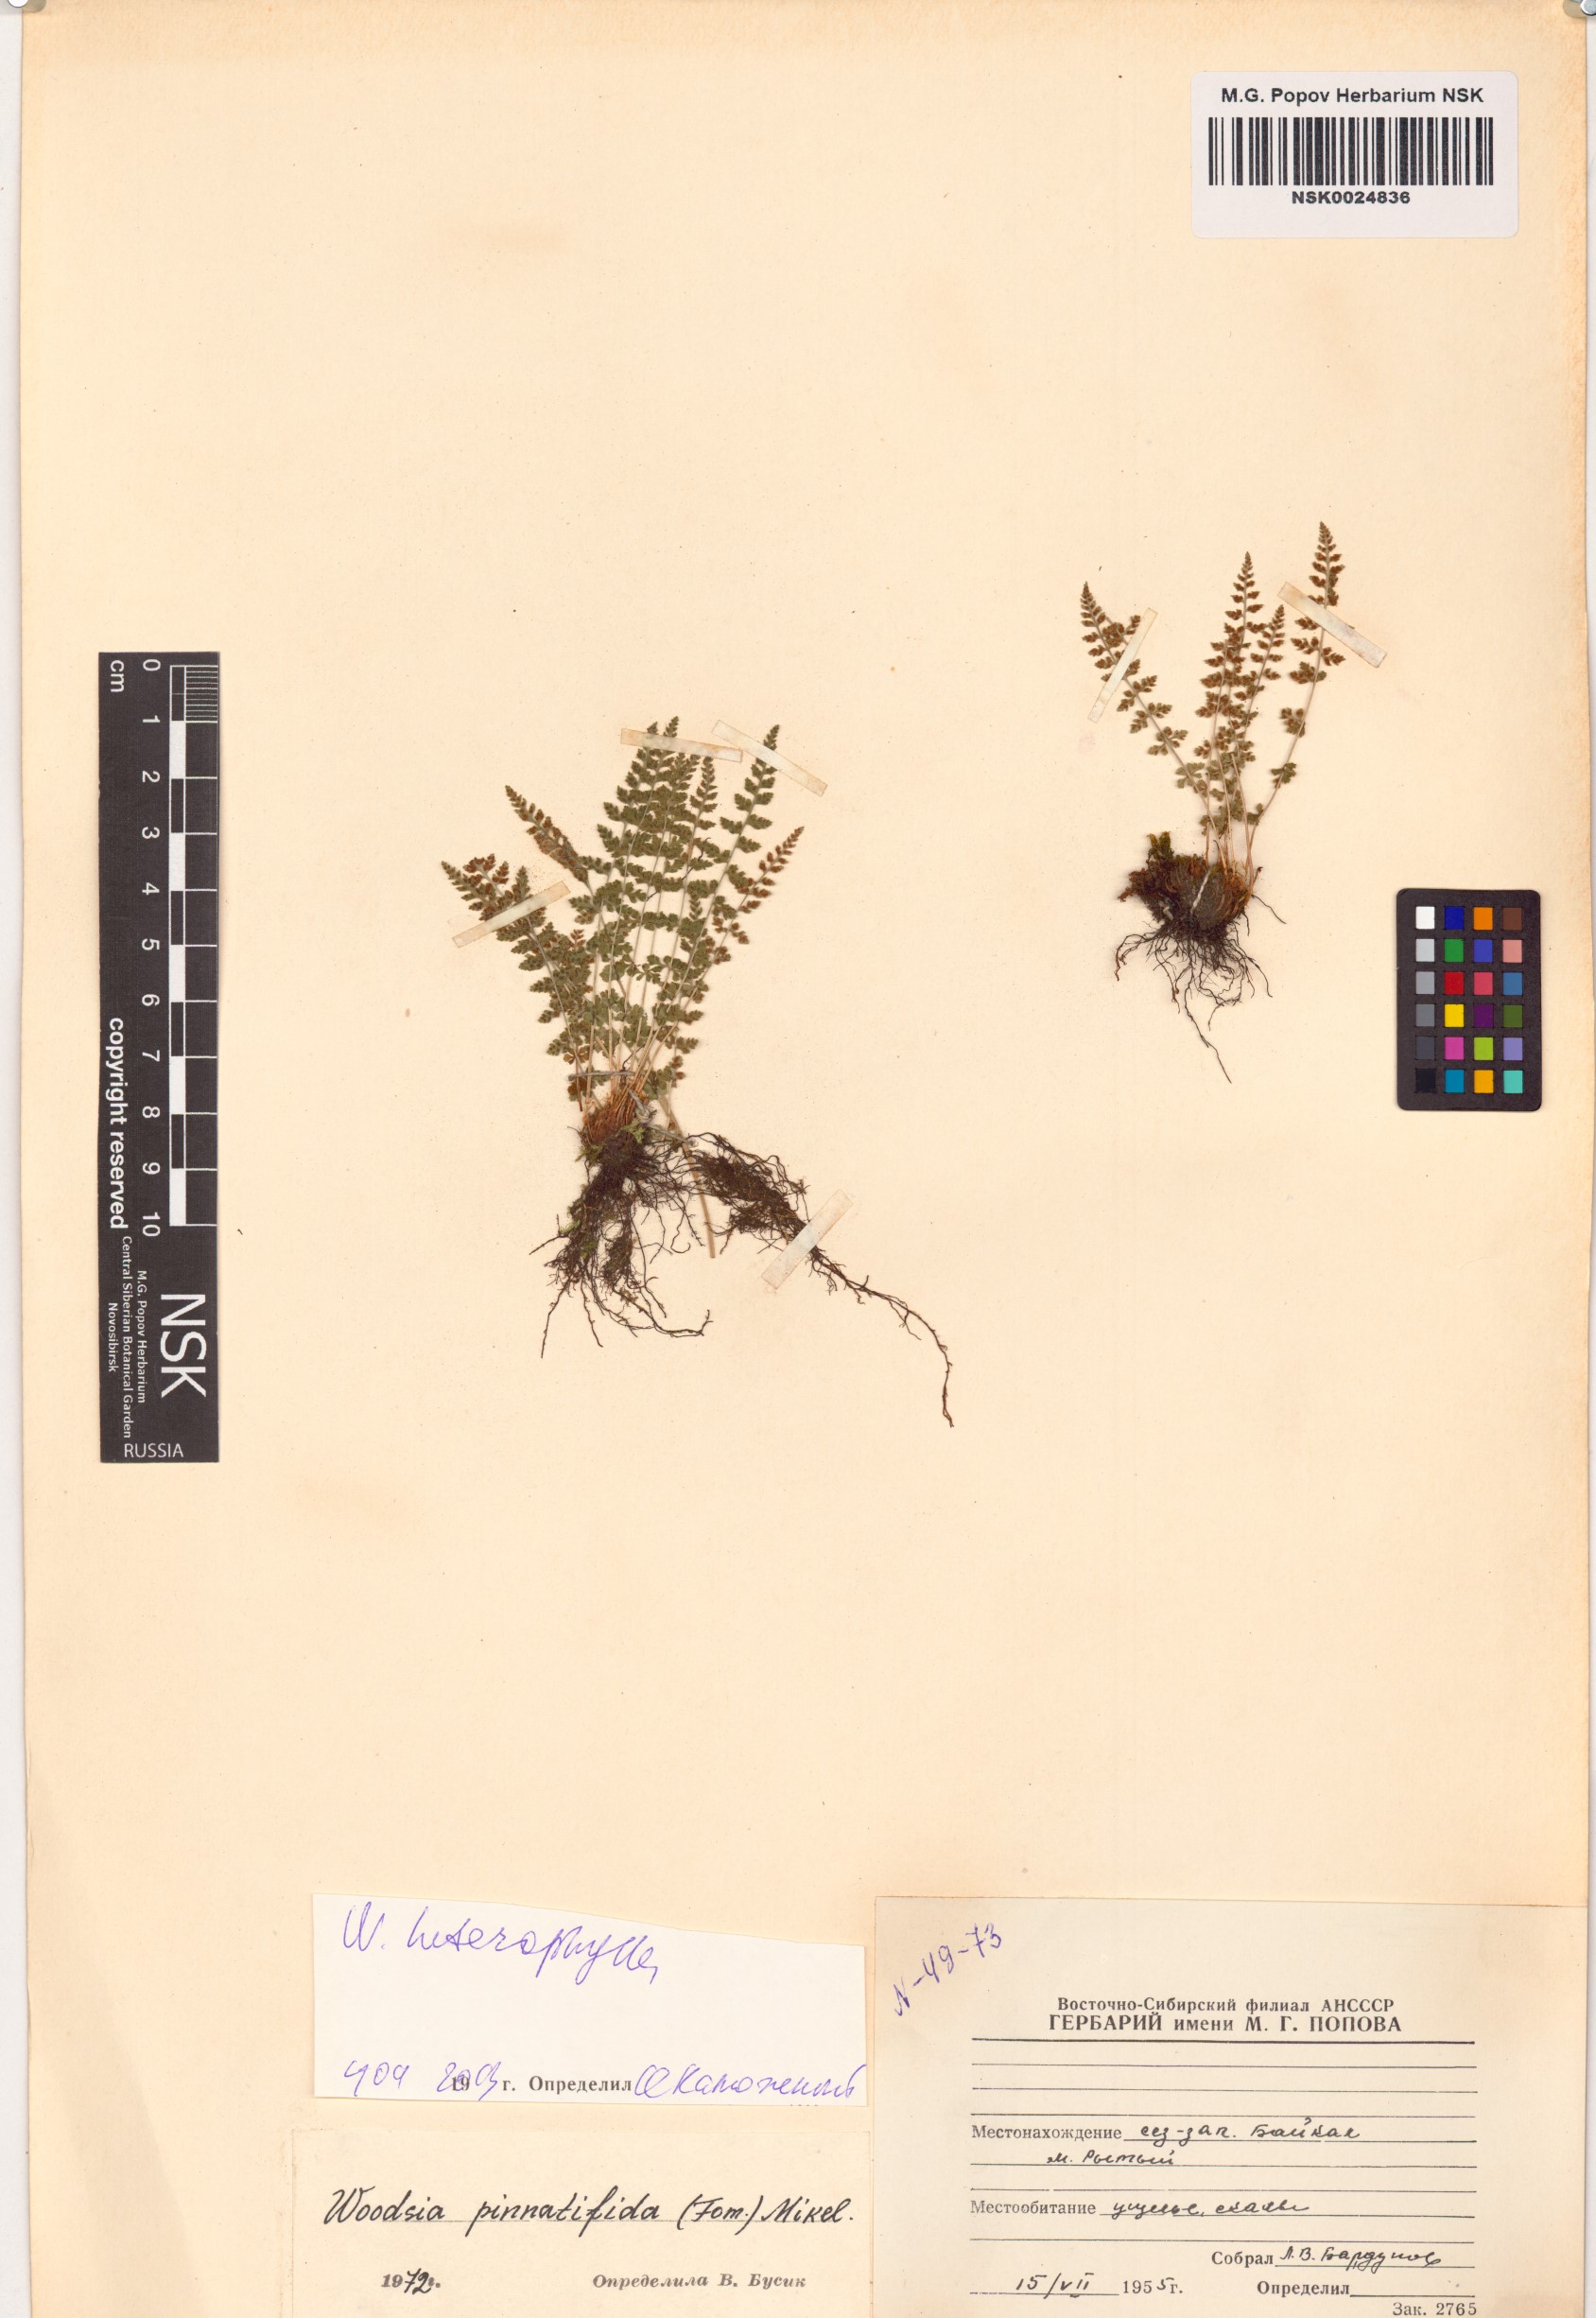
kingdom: Plantae
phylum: Tracheophyta
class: Polypodiopsida
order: Polypodiales
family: Woodsiaceae
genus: Woodsia
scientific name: Woodsia pulchella
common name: Graceful woodsia
